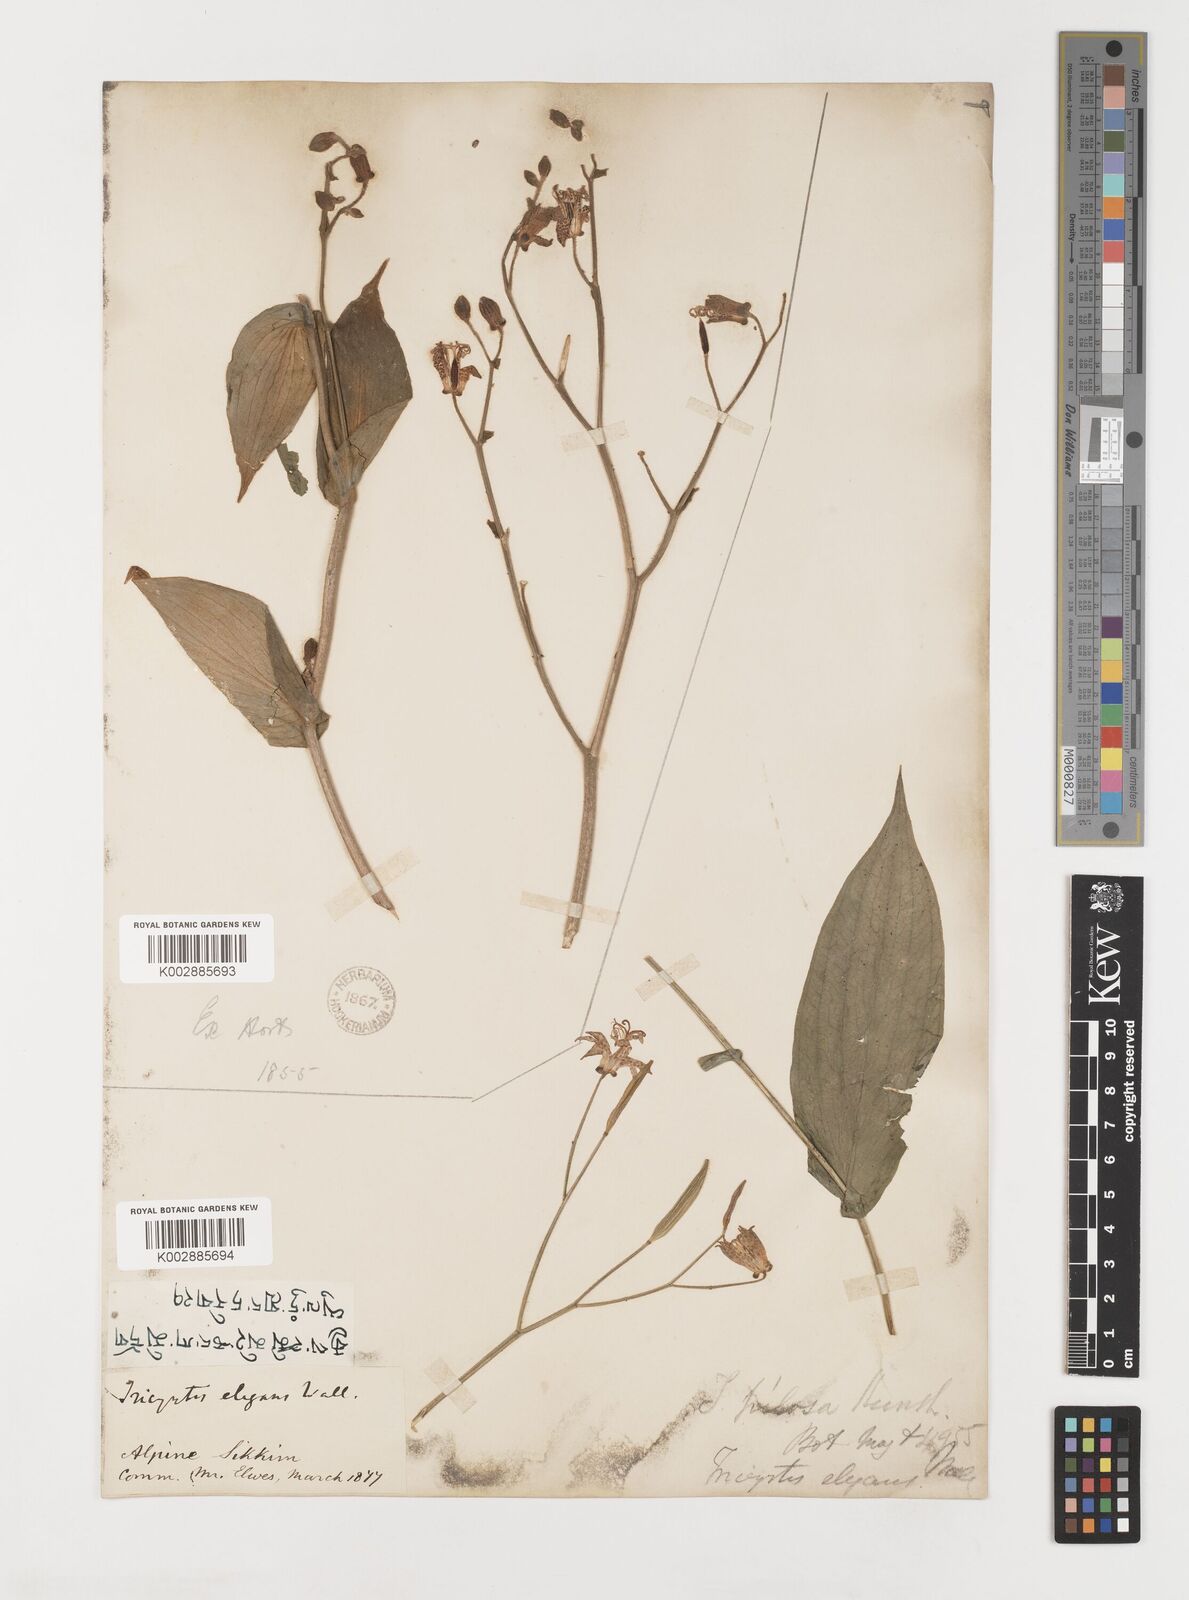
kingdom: Plantae
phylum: Tracheophyta
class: Liliopsida
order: Liliales
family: Liliaceae
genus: Tricyrtis
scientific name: Tricyrtis maculata
